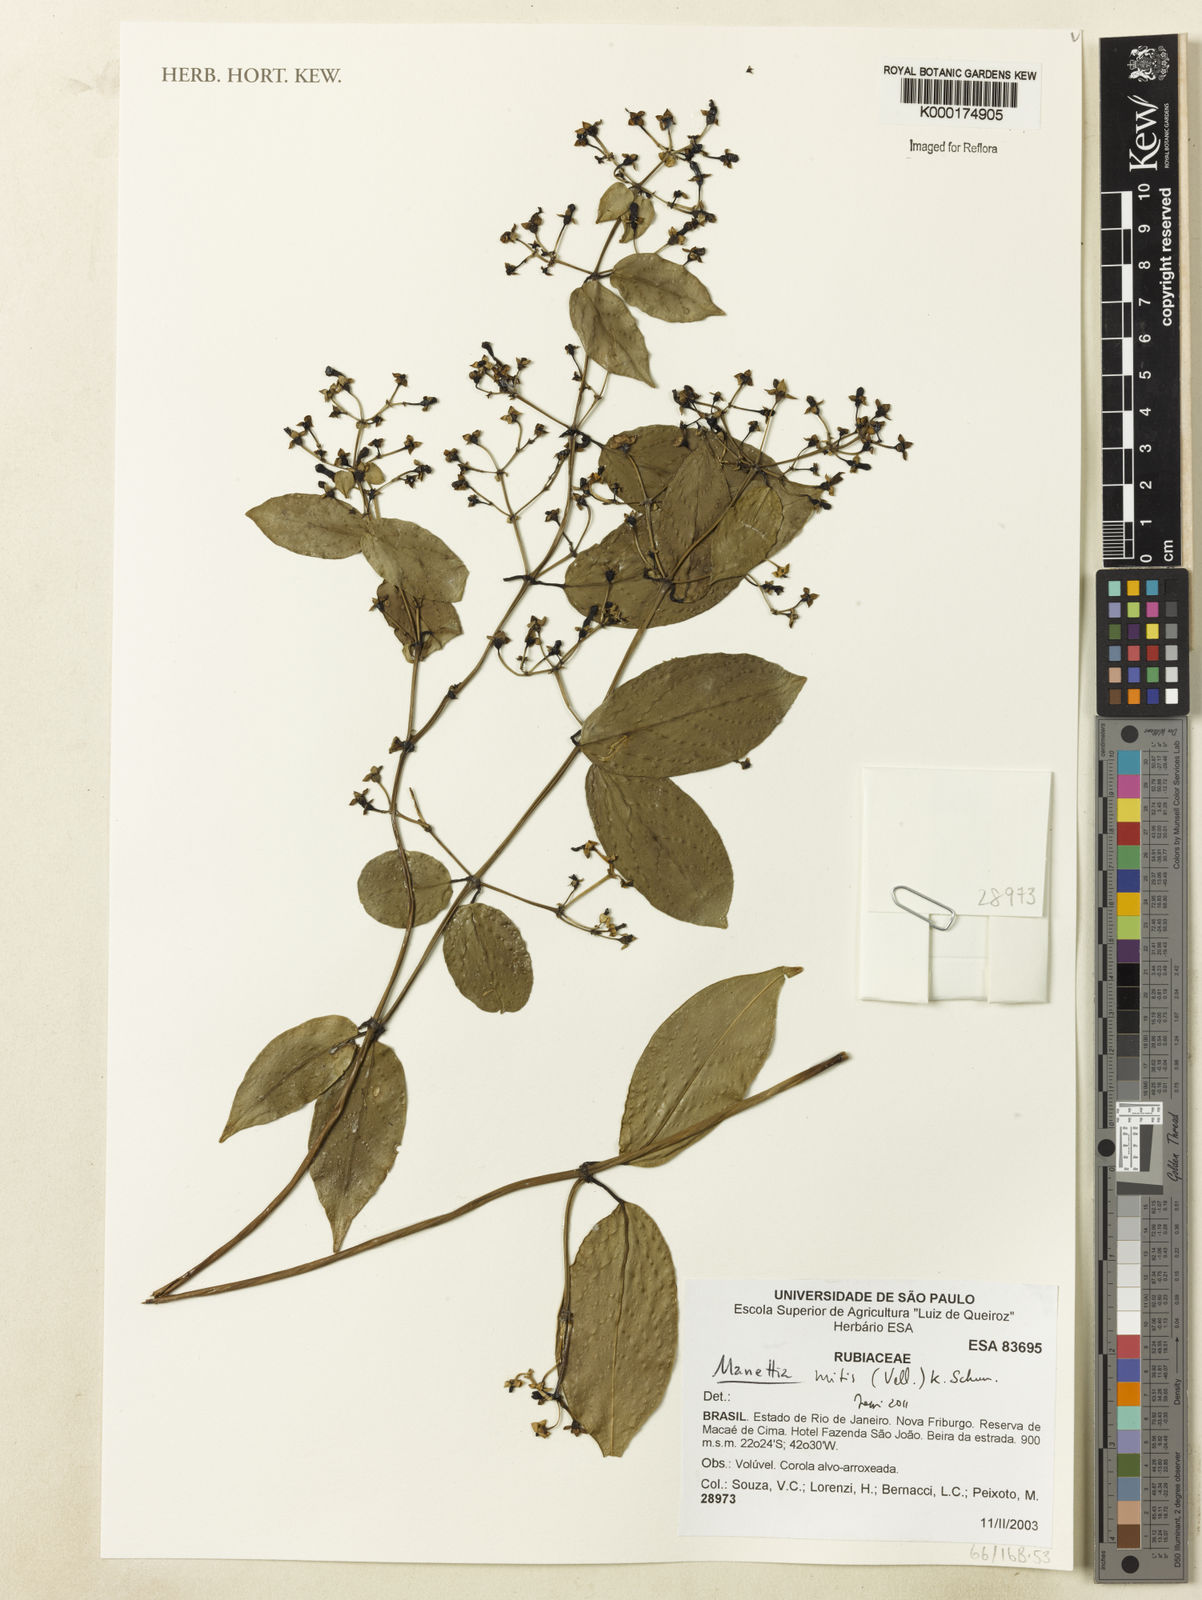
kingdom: Plantae
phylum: Tracheophyta
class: Magnoliopsida
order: Gentianales
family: Rubiaceae
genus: Manettia
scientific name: Manettia mitis
